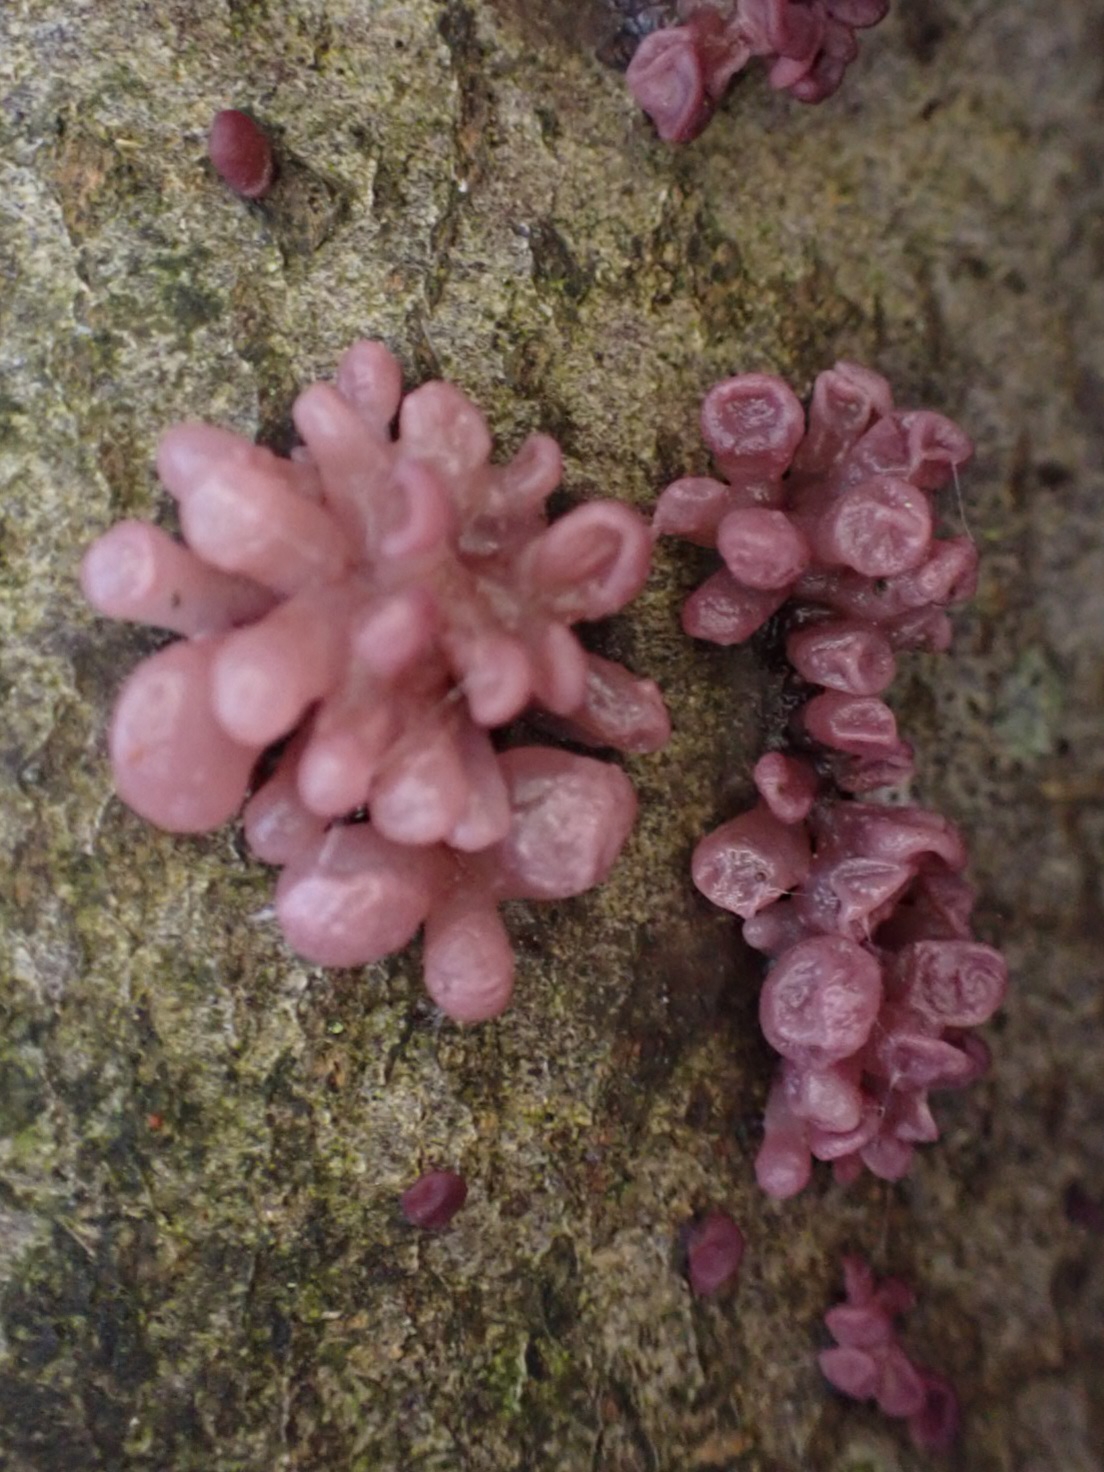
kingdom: Fungi
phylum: Ascomycota
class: Leotiomycetes
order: Helotiales
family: Gelatinodiscaceae
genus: Ascocoryne
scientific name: Ascocoryne sarcoides
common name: rødlilla sejskive
